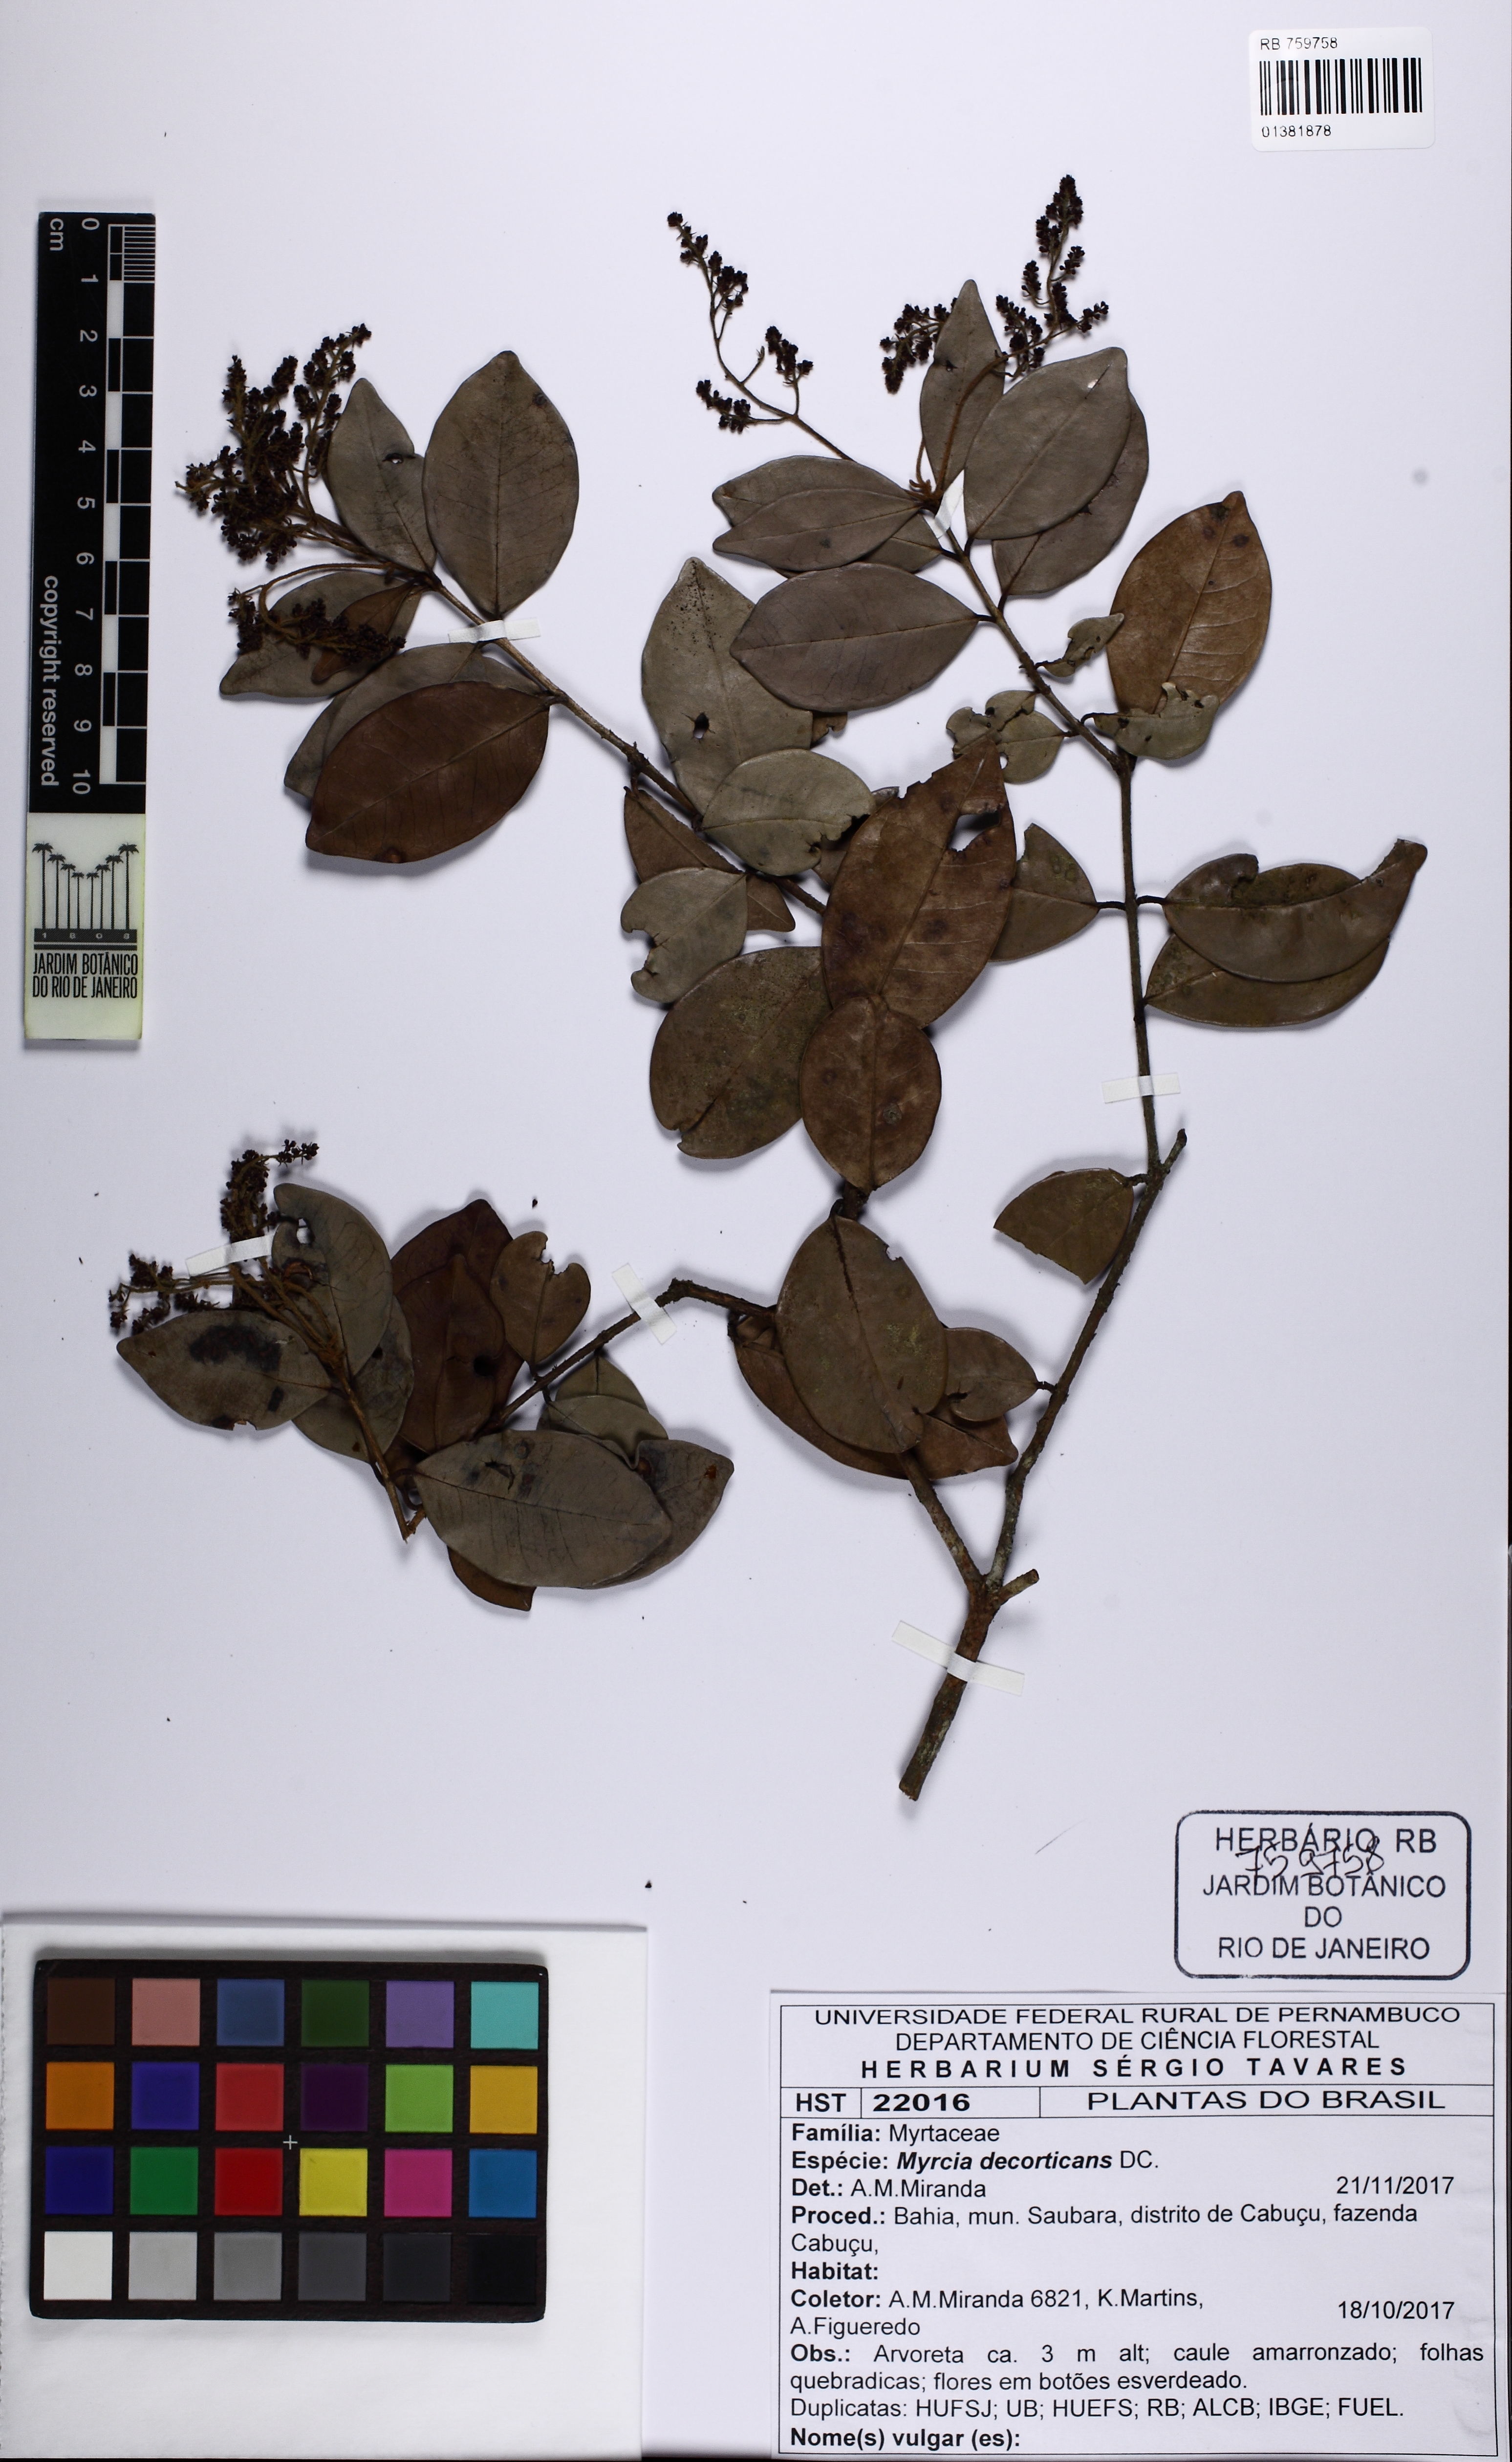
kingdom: Plantae
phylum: Tracheophyta
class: Magnoliopsida
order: Myrtales
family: Myrtaceae
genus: Myrcia
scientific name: Myrcia decorticans
